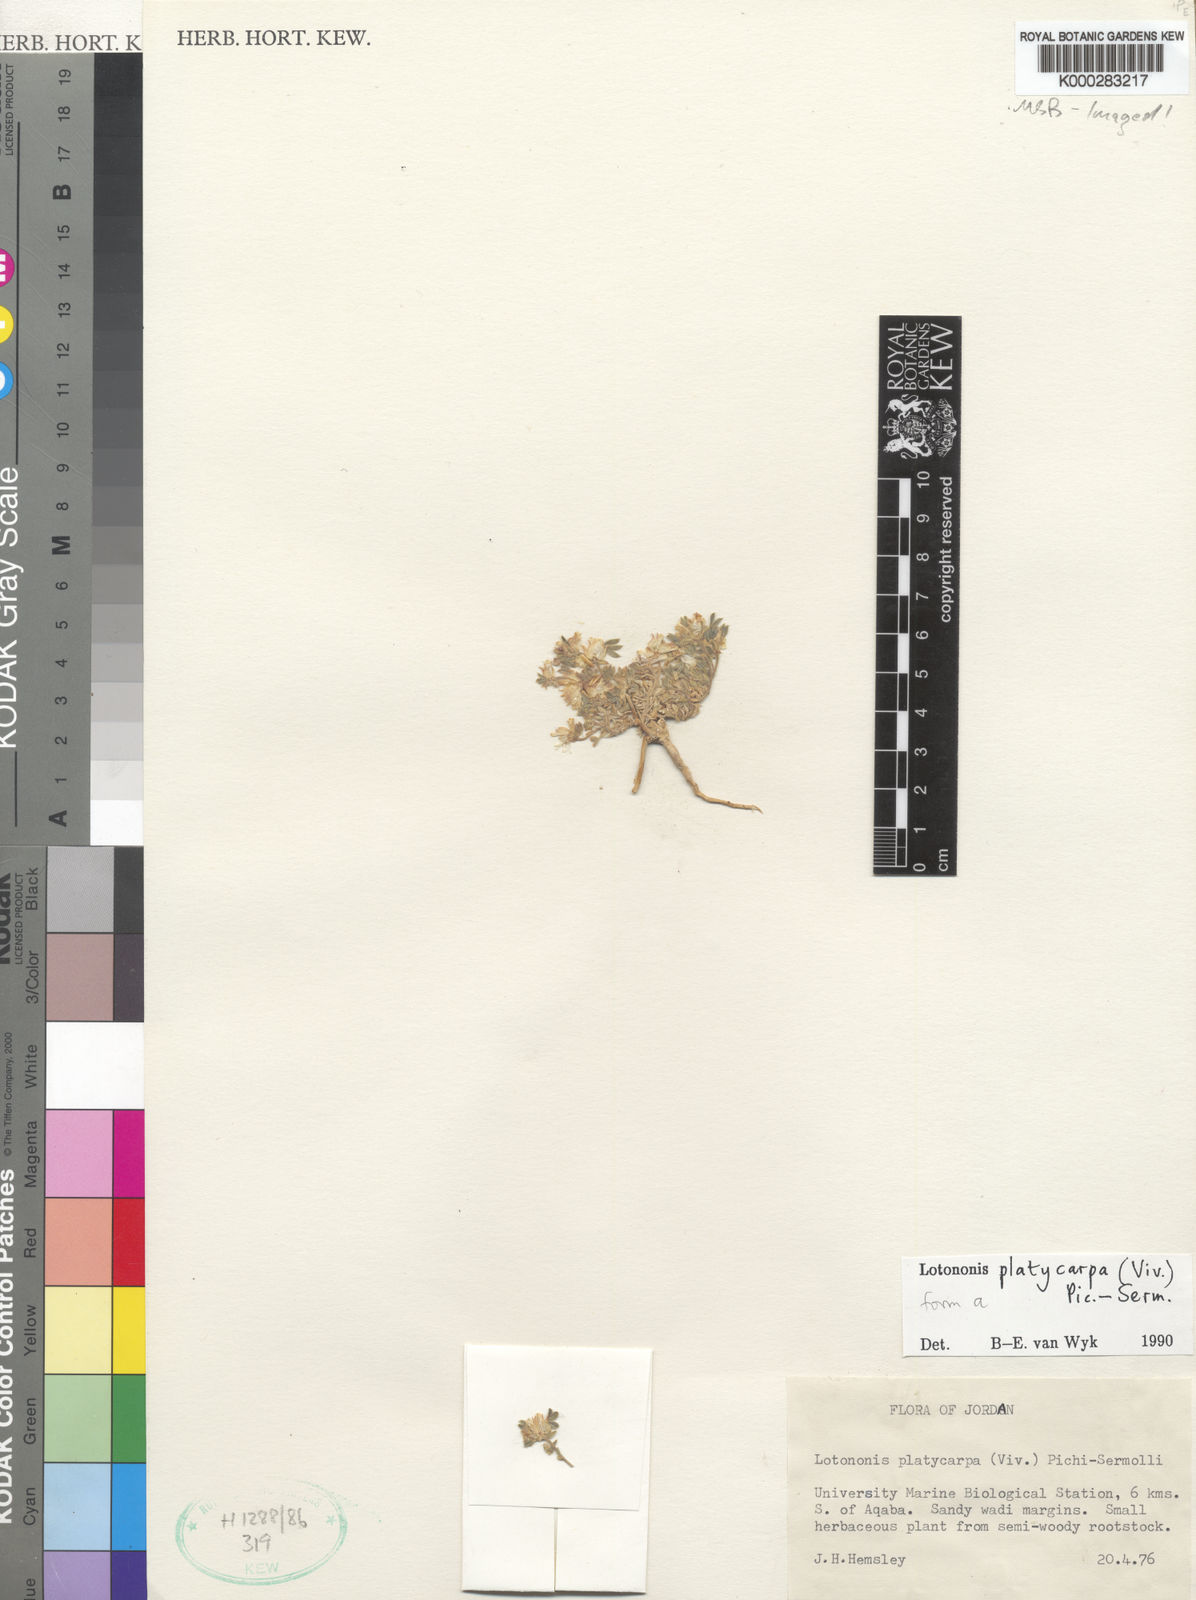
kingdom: Plantae
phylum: Tracheophyta
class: Magnoliopsida
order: Fabales
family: Fabaceae
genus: Leobordea
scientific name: Leobordea platycarpa
